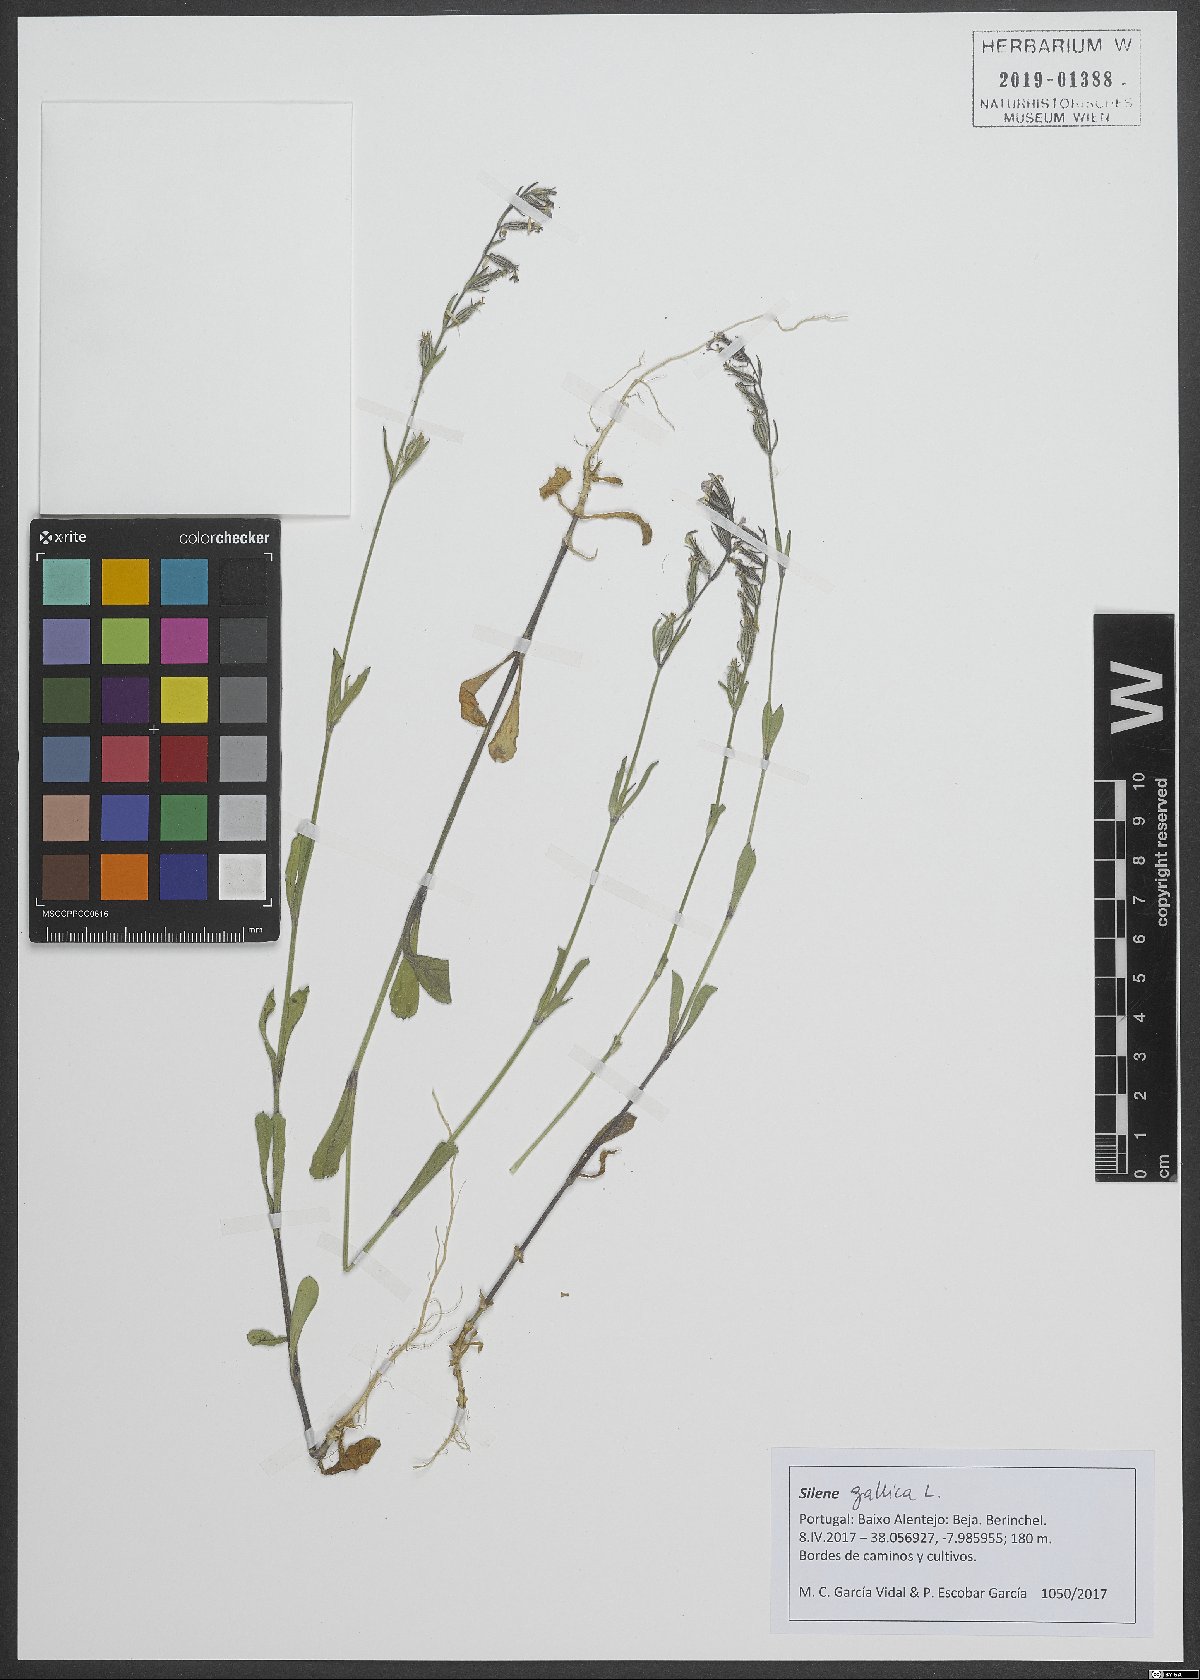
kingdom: Plantae
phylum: Tracheophyta
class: Magnoliopsida
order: Caryophyllales
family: Caryophyllaceae
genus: Silene
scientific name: Silene gallica
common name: Small-flowered catchfly
